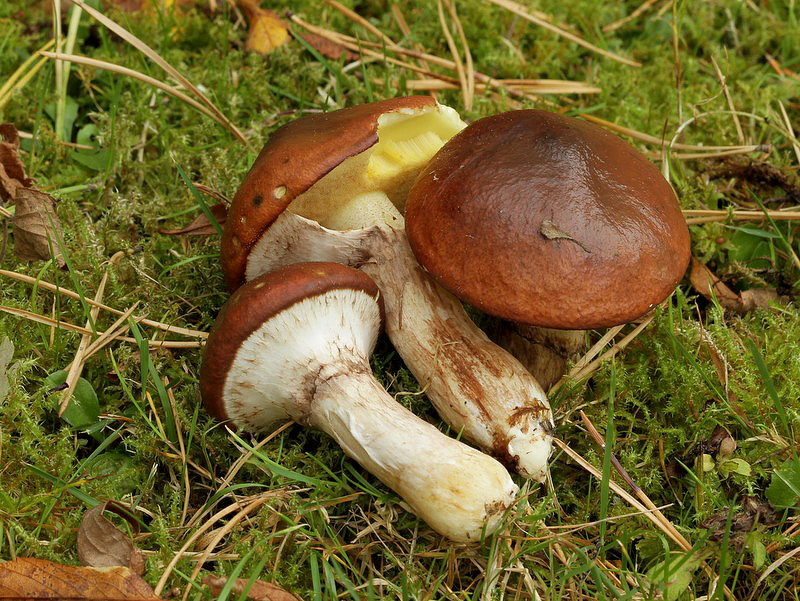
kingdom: Fungi
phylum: Basidiomycota
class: Agaricomycetes
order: Boletales
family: Suillaceae
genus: Suillus
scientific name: Suillus luteus
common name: brungul slimrørhat
